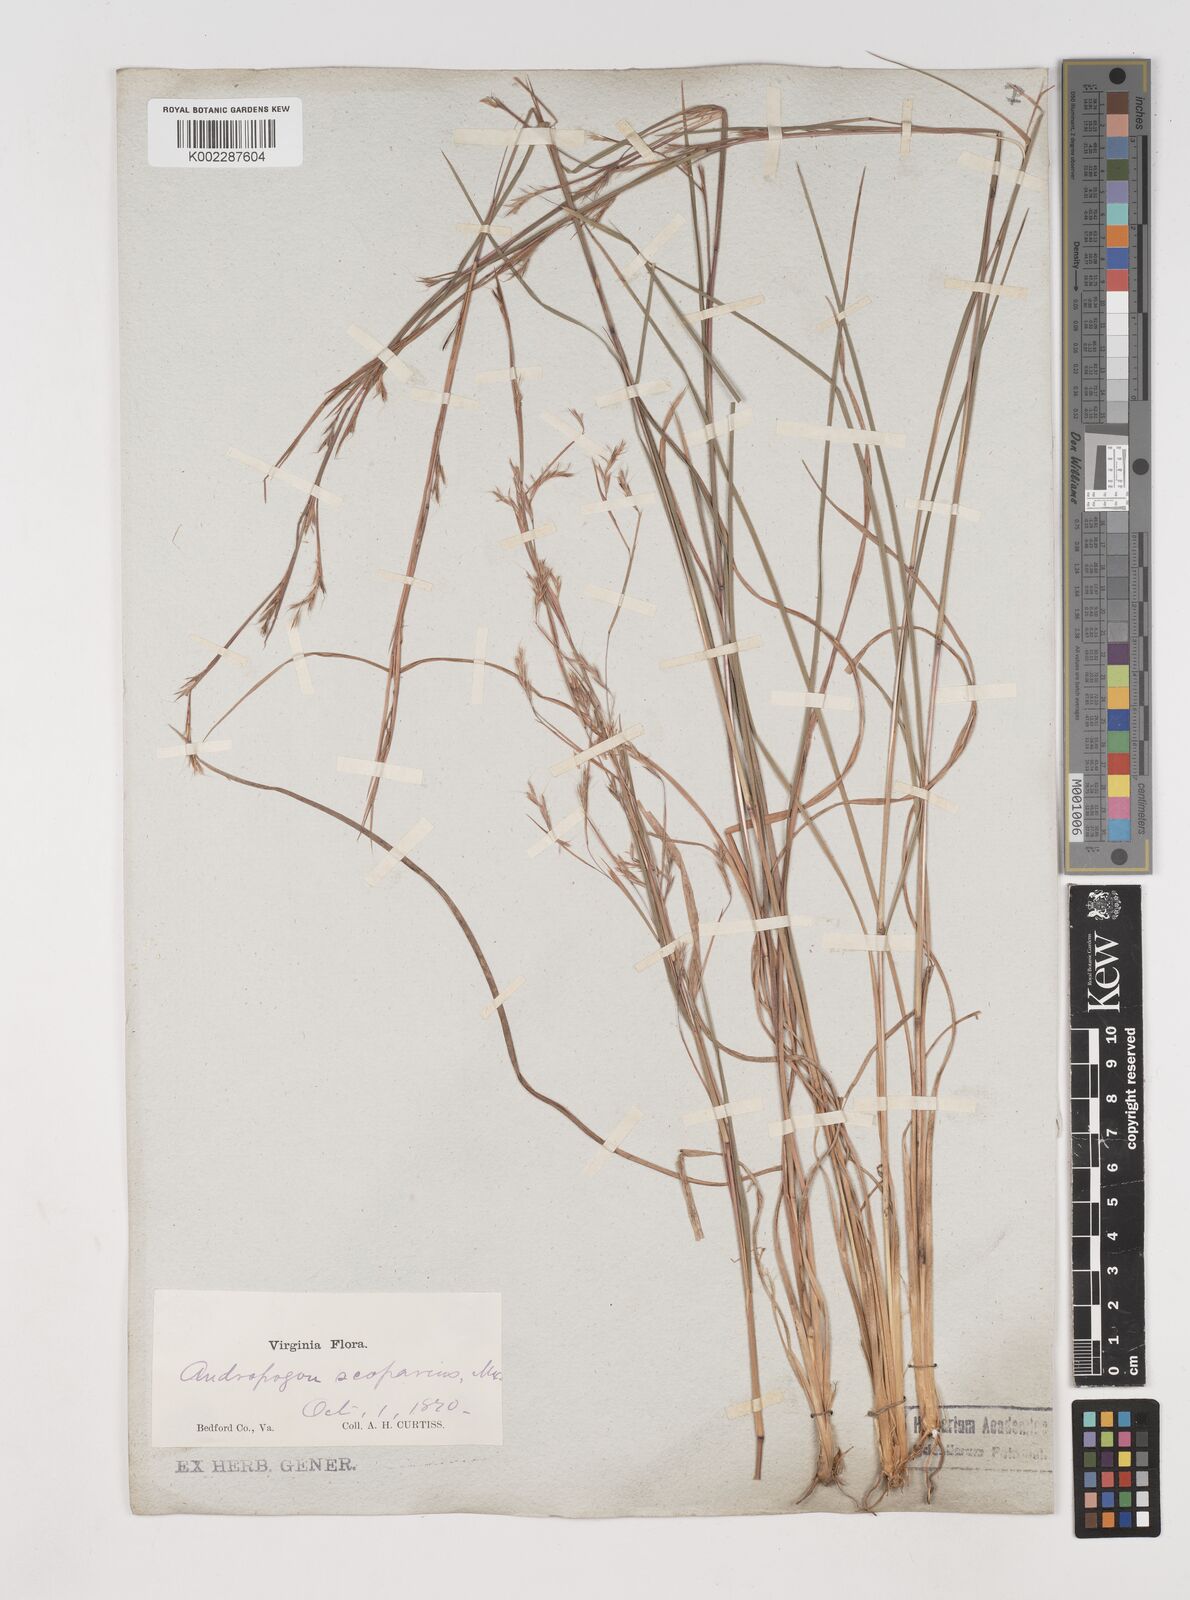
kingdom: Plantae
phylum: Tracheophyta
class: Liliopsida
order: Poales
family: Poaceae
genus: Schizachyrium
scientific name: Schizachyrium scoparium
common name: Little bluestem
